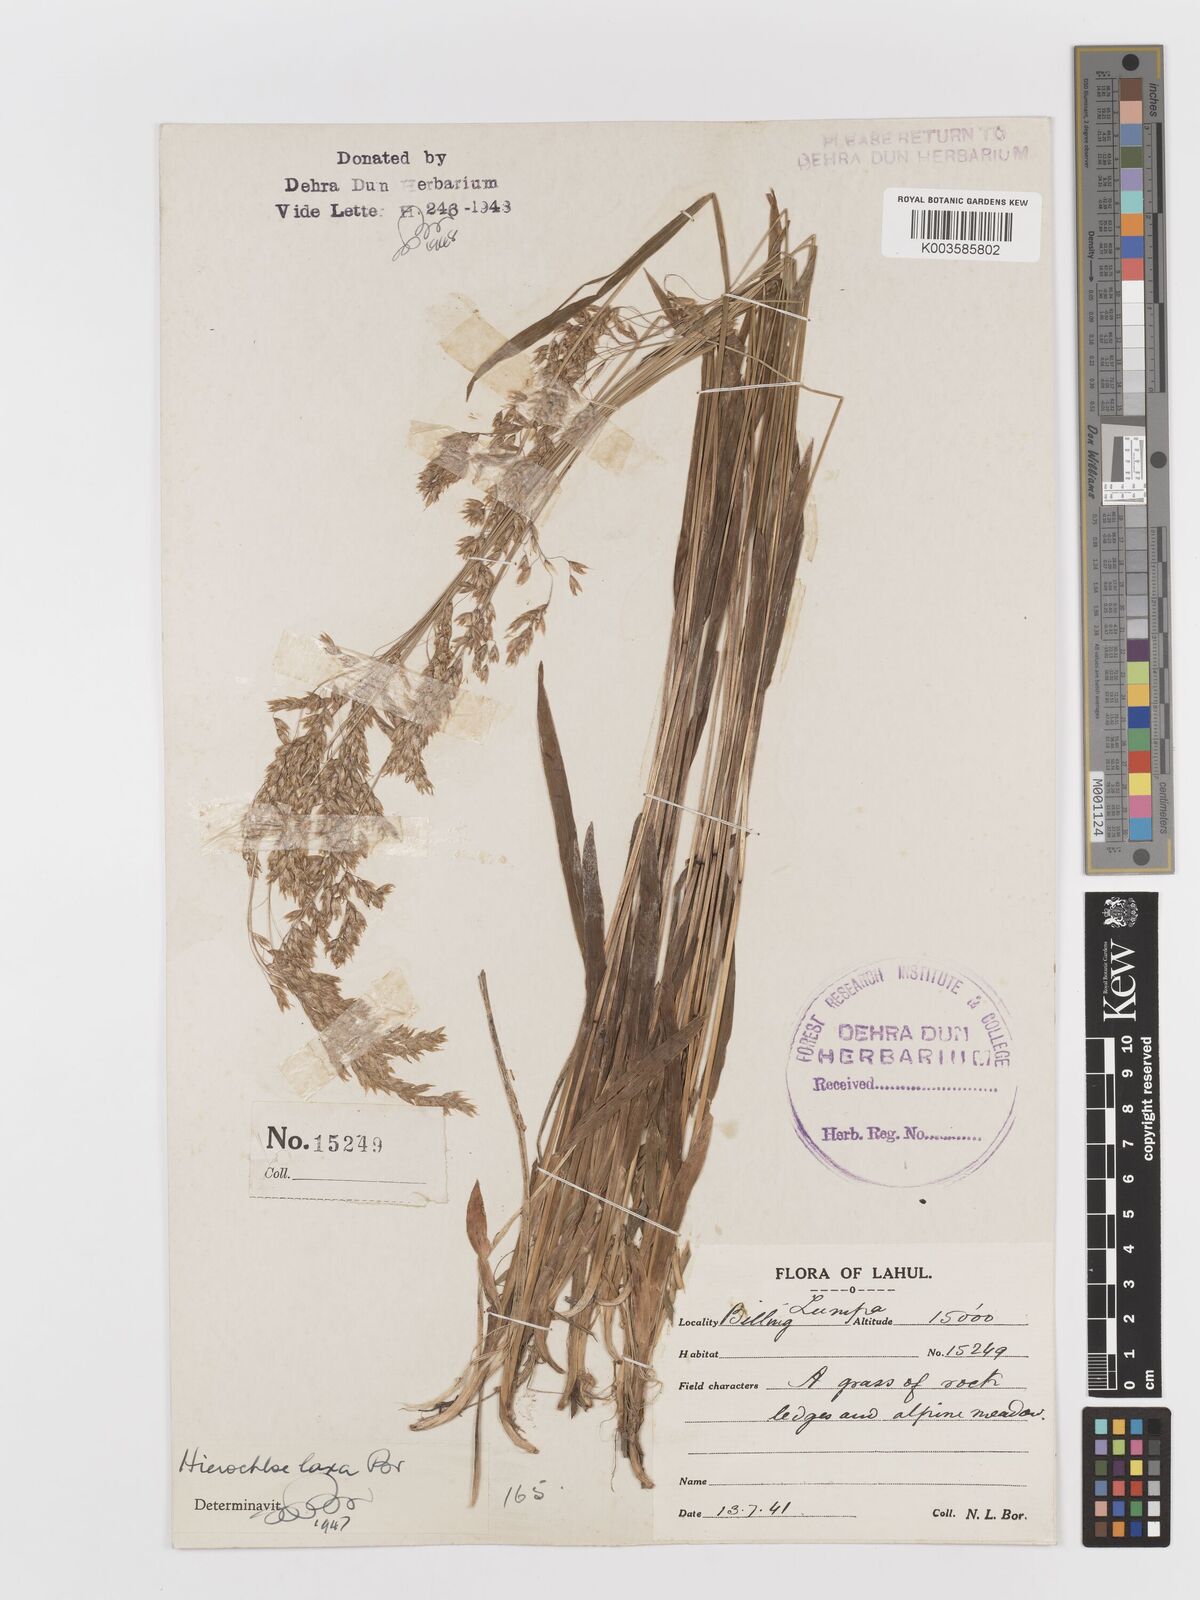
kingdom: Plantae
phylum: Tracheophyta
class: Liliopsida
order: Poales
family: Poaceae
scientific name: Poaceae
